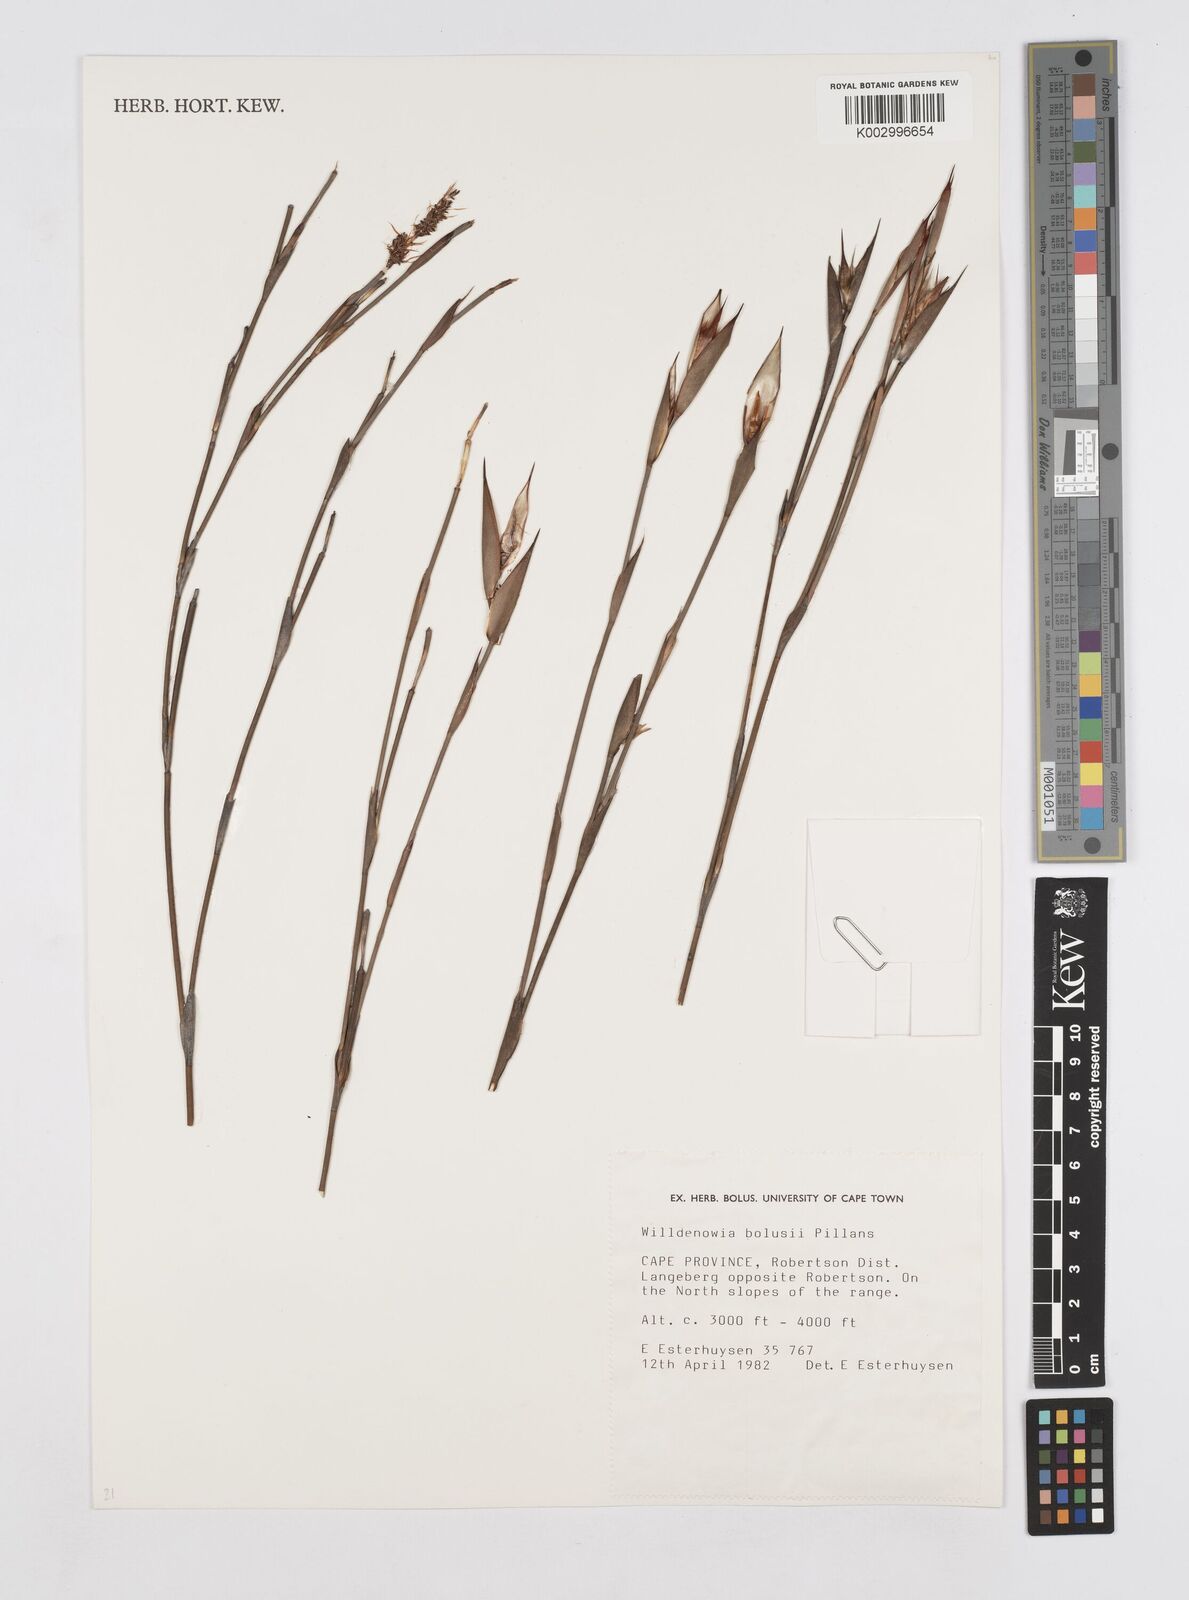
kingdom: Plantae
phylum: Tracheophyta
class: Liliopsida
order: Poales
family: Restionaceae
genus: Willdenowia
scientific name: Willdenowia bolusii
